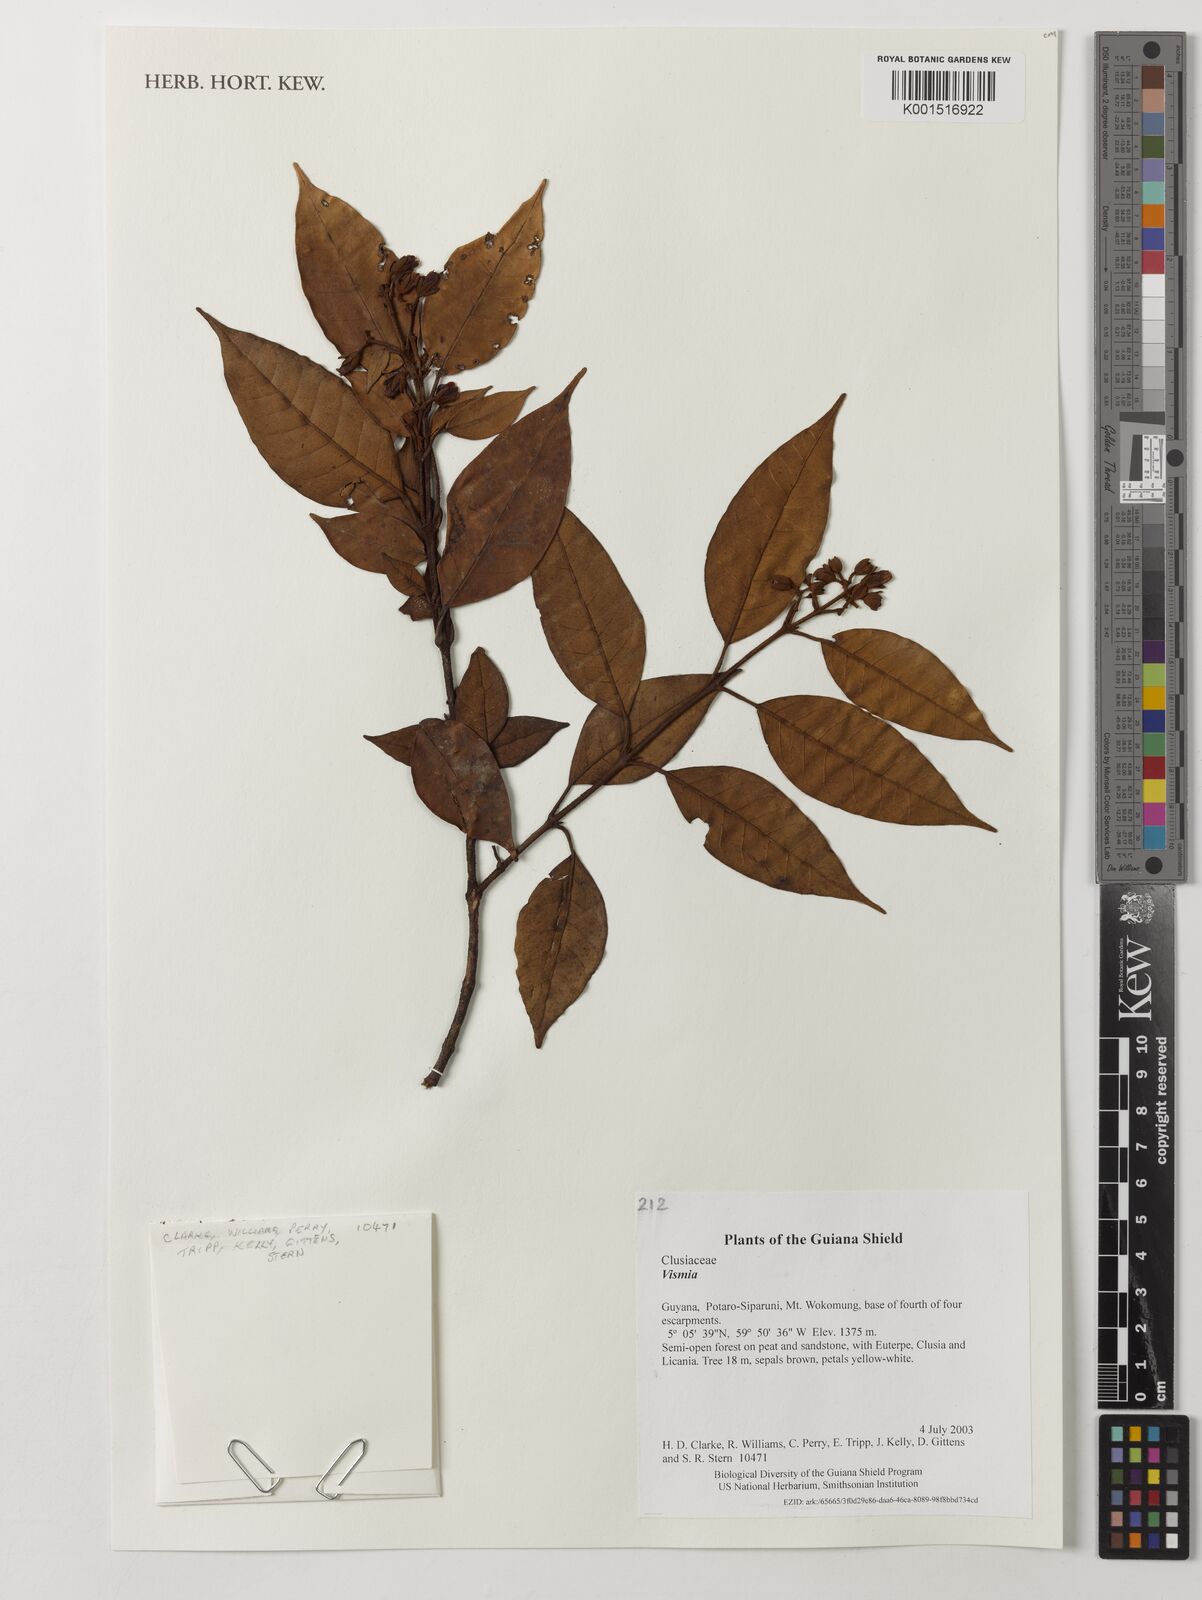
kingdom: Plantae
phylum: Tracheophyta
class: Magnoliopsida
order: Malpighiales
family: Hypericaceae
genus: Vismia
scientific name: Vismia
